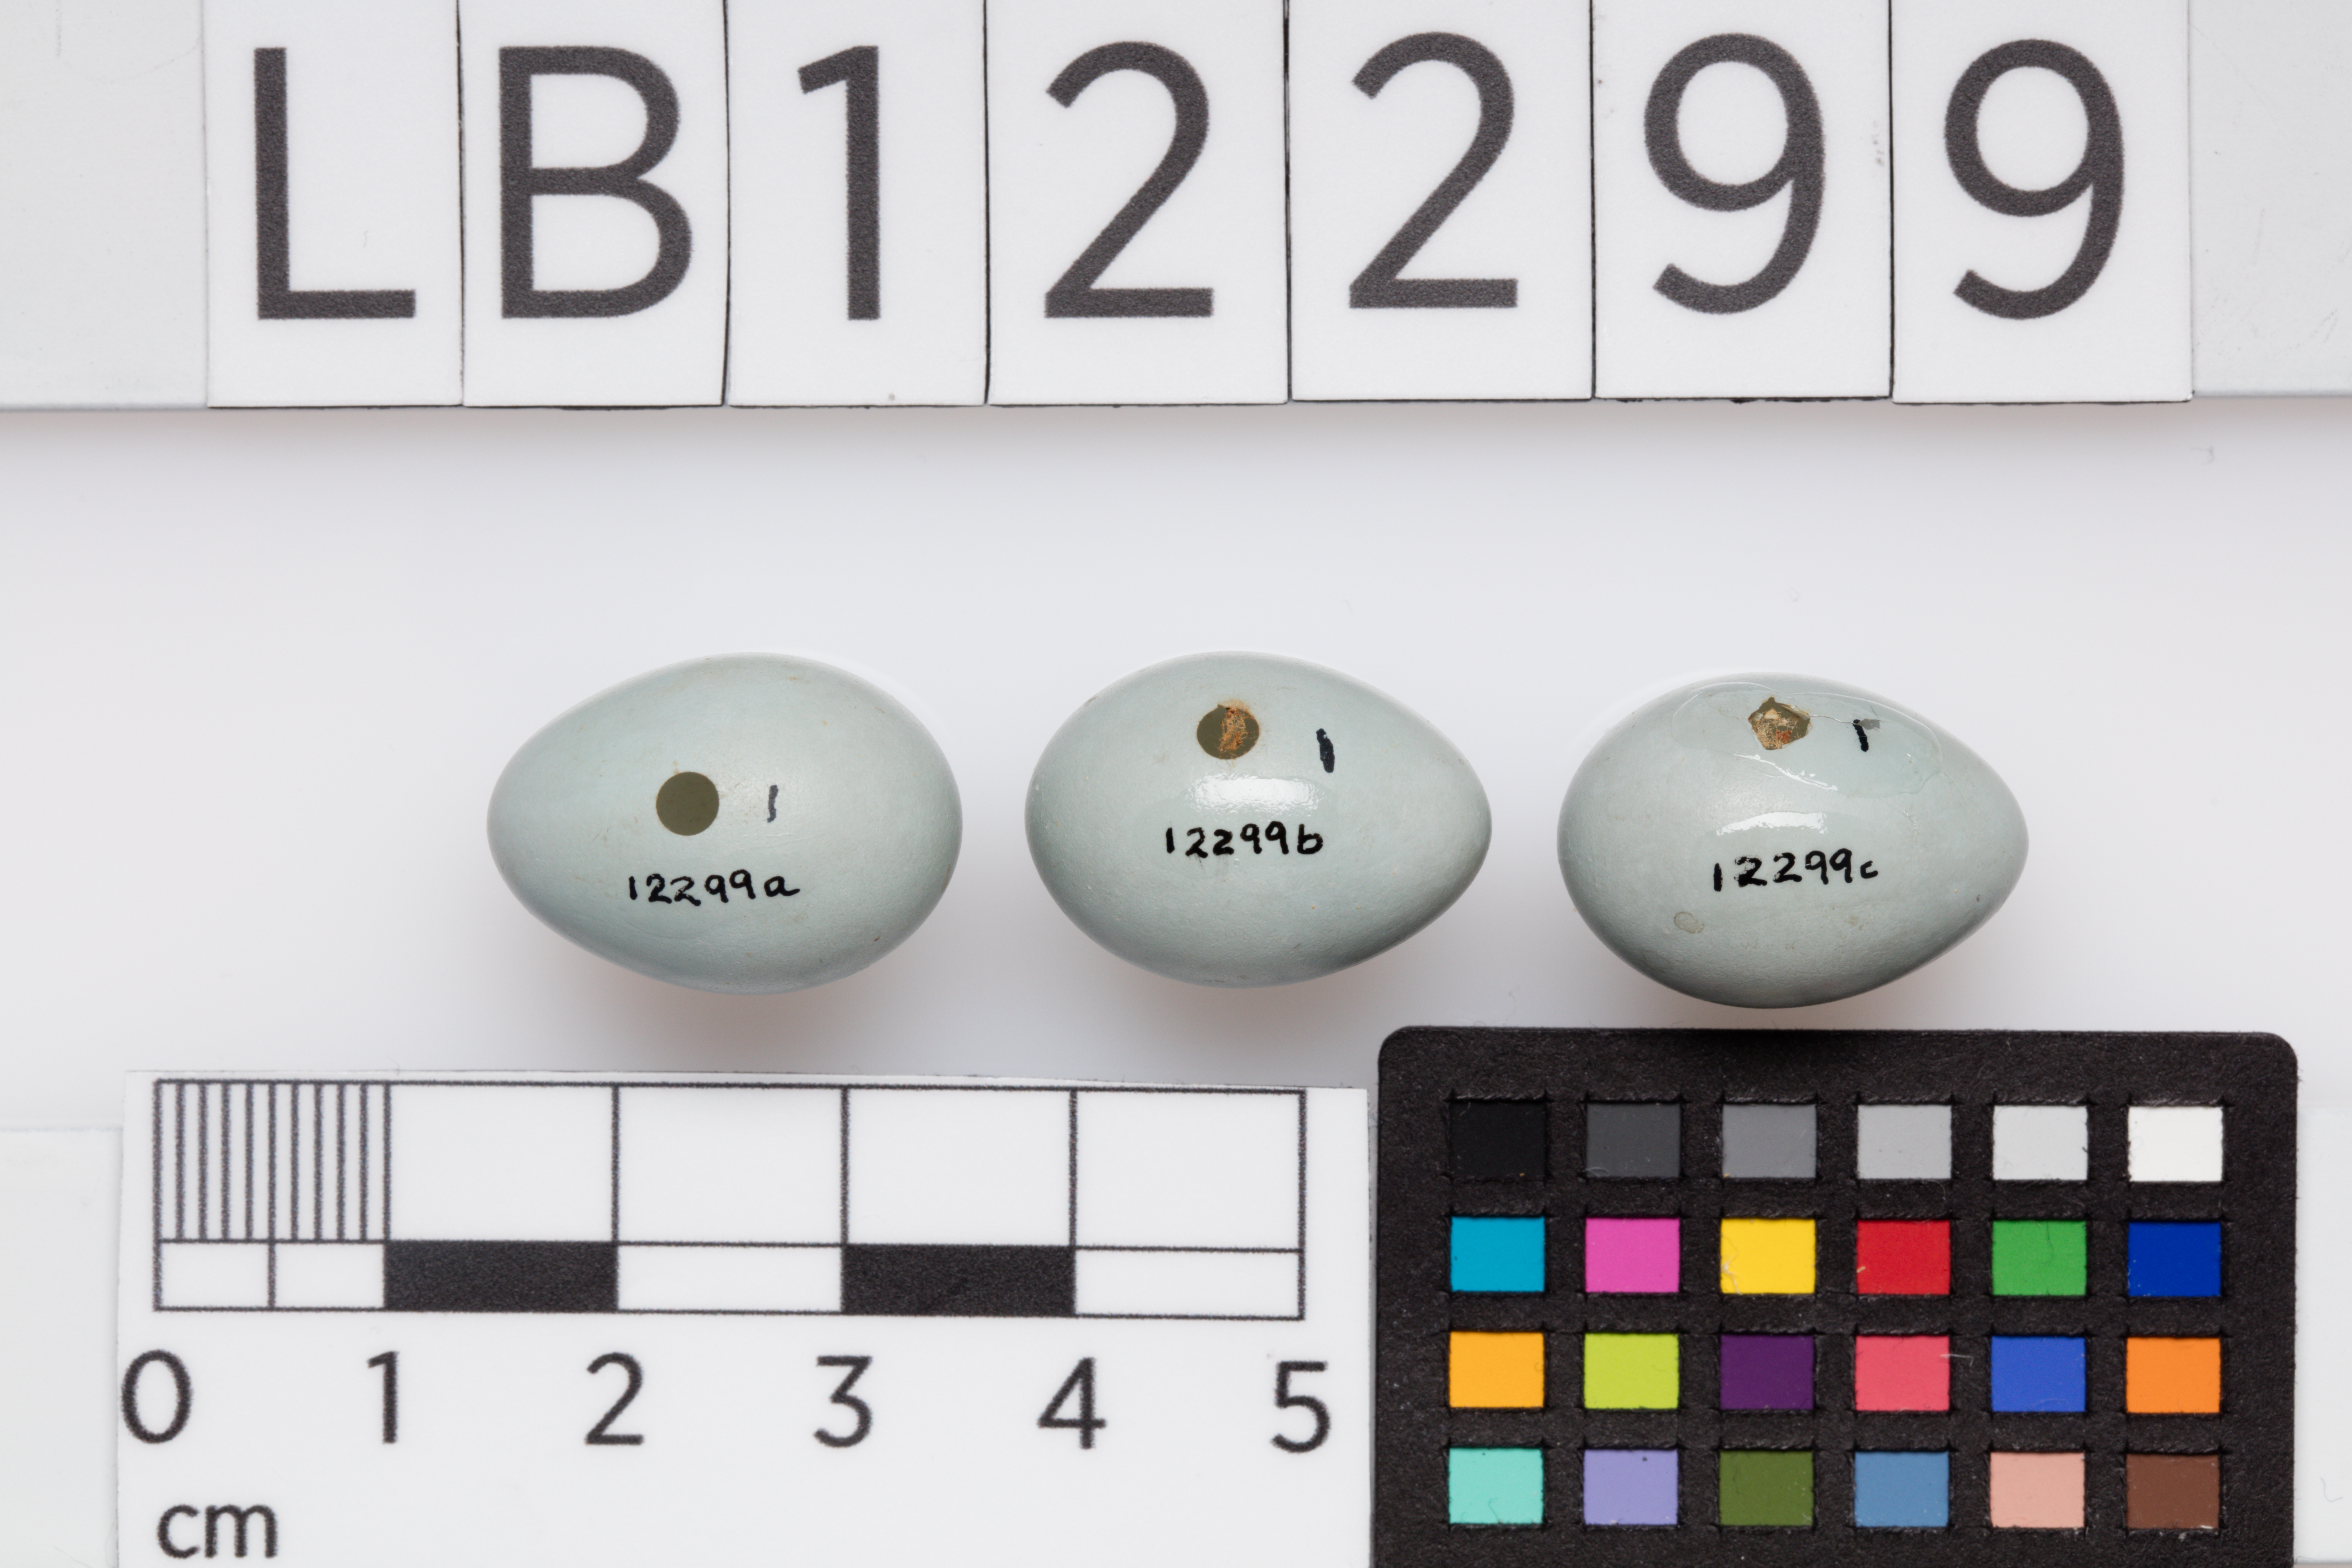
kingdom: Animalia
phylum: Chordata
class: Aves
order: Passeriformes
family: Muscicapidae
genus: Saxicola
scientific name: Saxicola rubetra
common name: Whinchat
